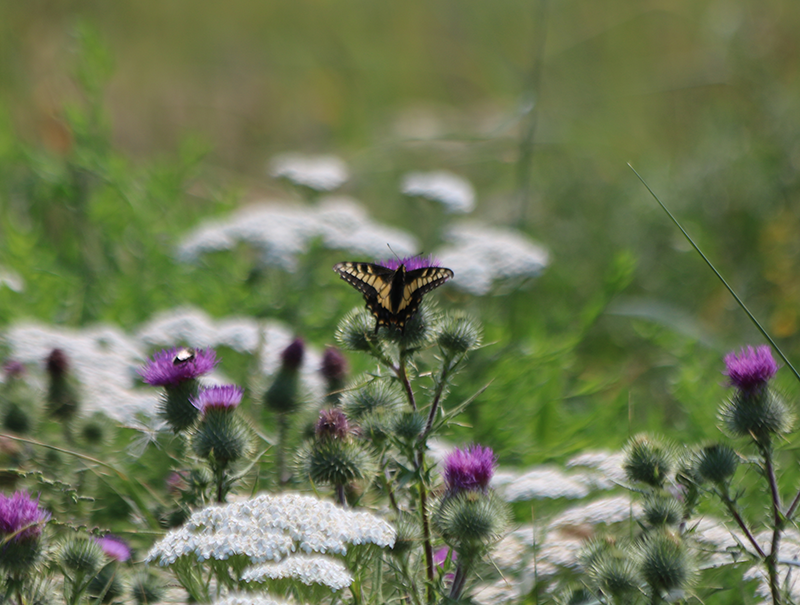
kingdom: Animalia
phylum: Arthropoda
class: Insecta
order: Lepidoptera
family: Papilionidae
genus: Papilio
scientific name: Papilio zelicaon
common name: Anise Swallowtail
